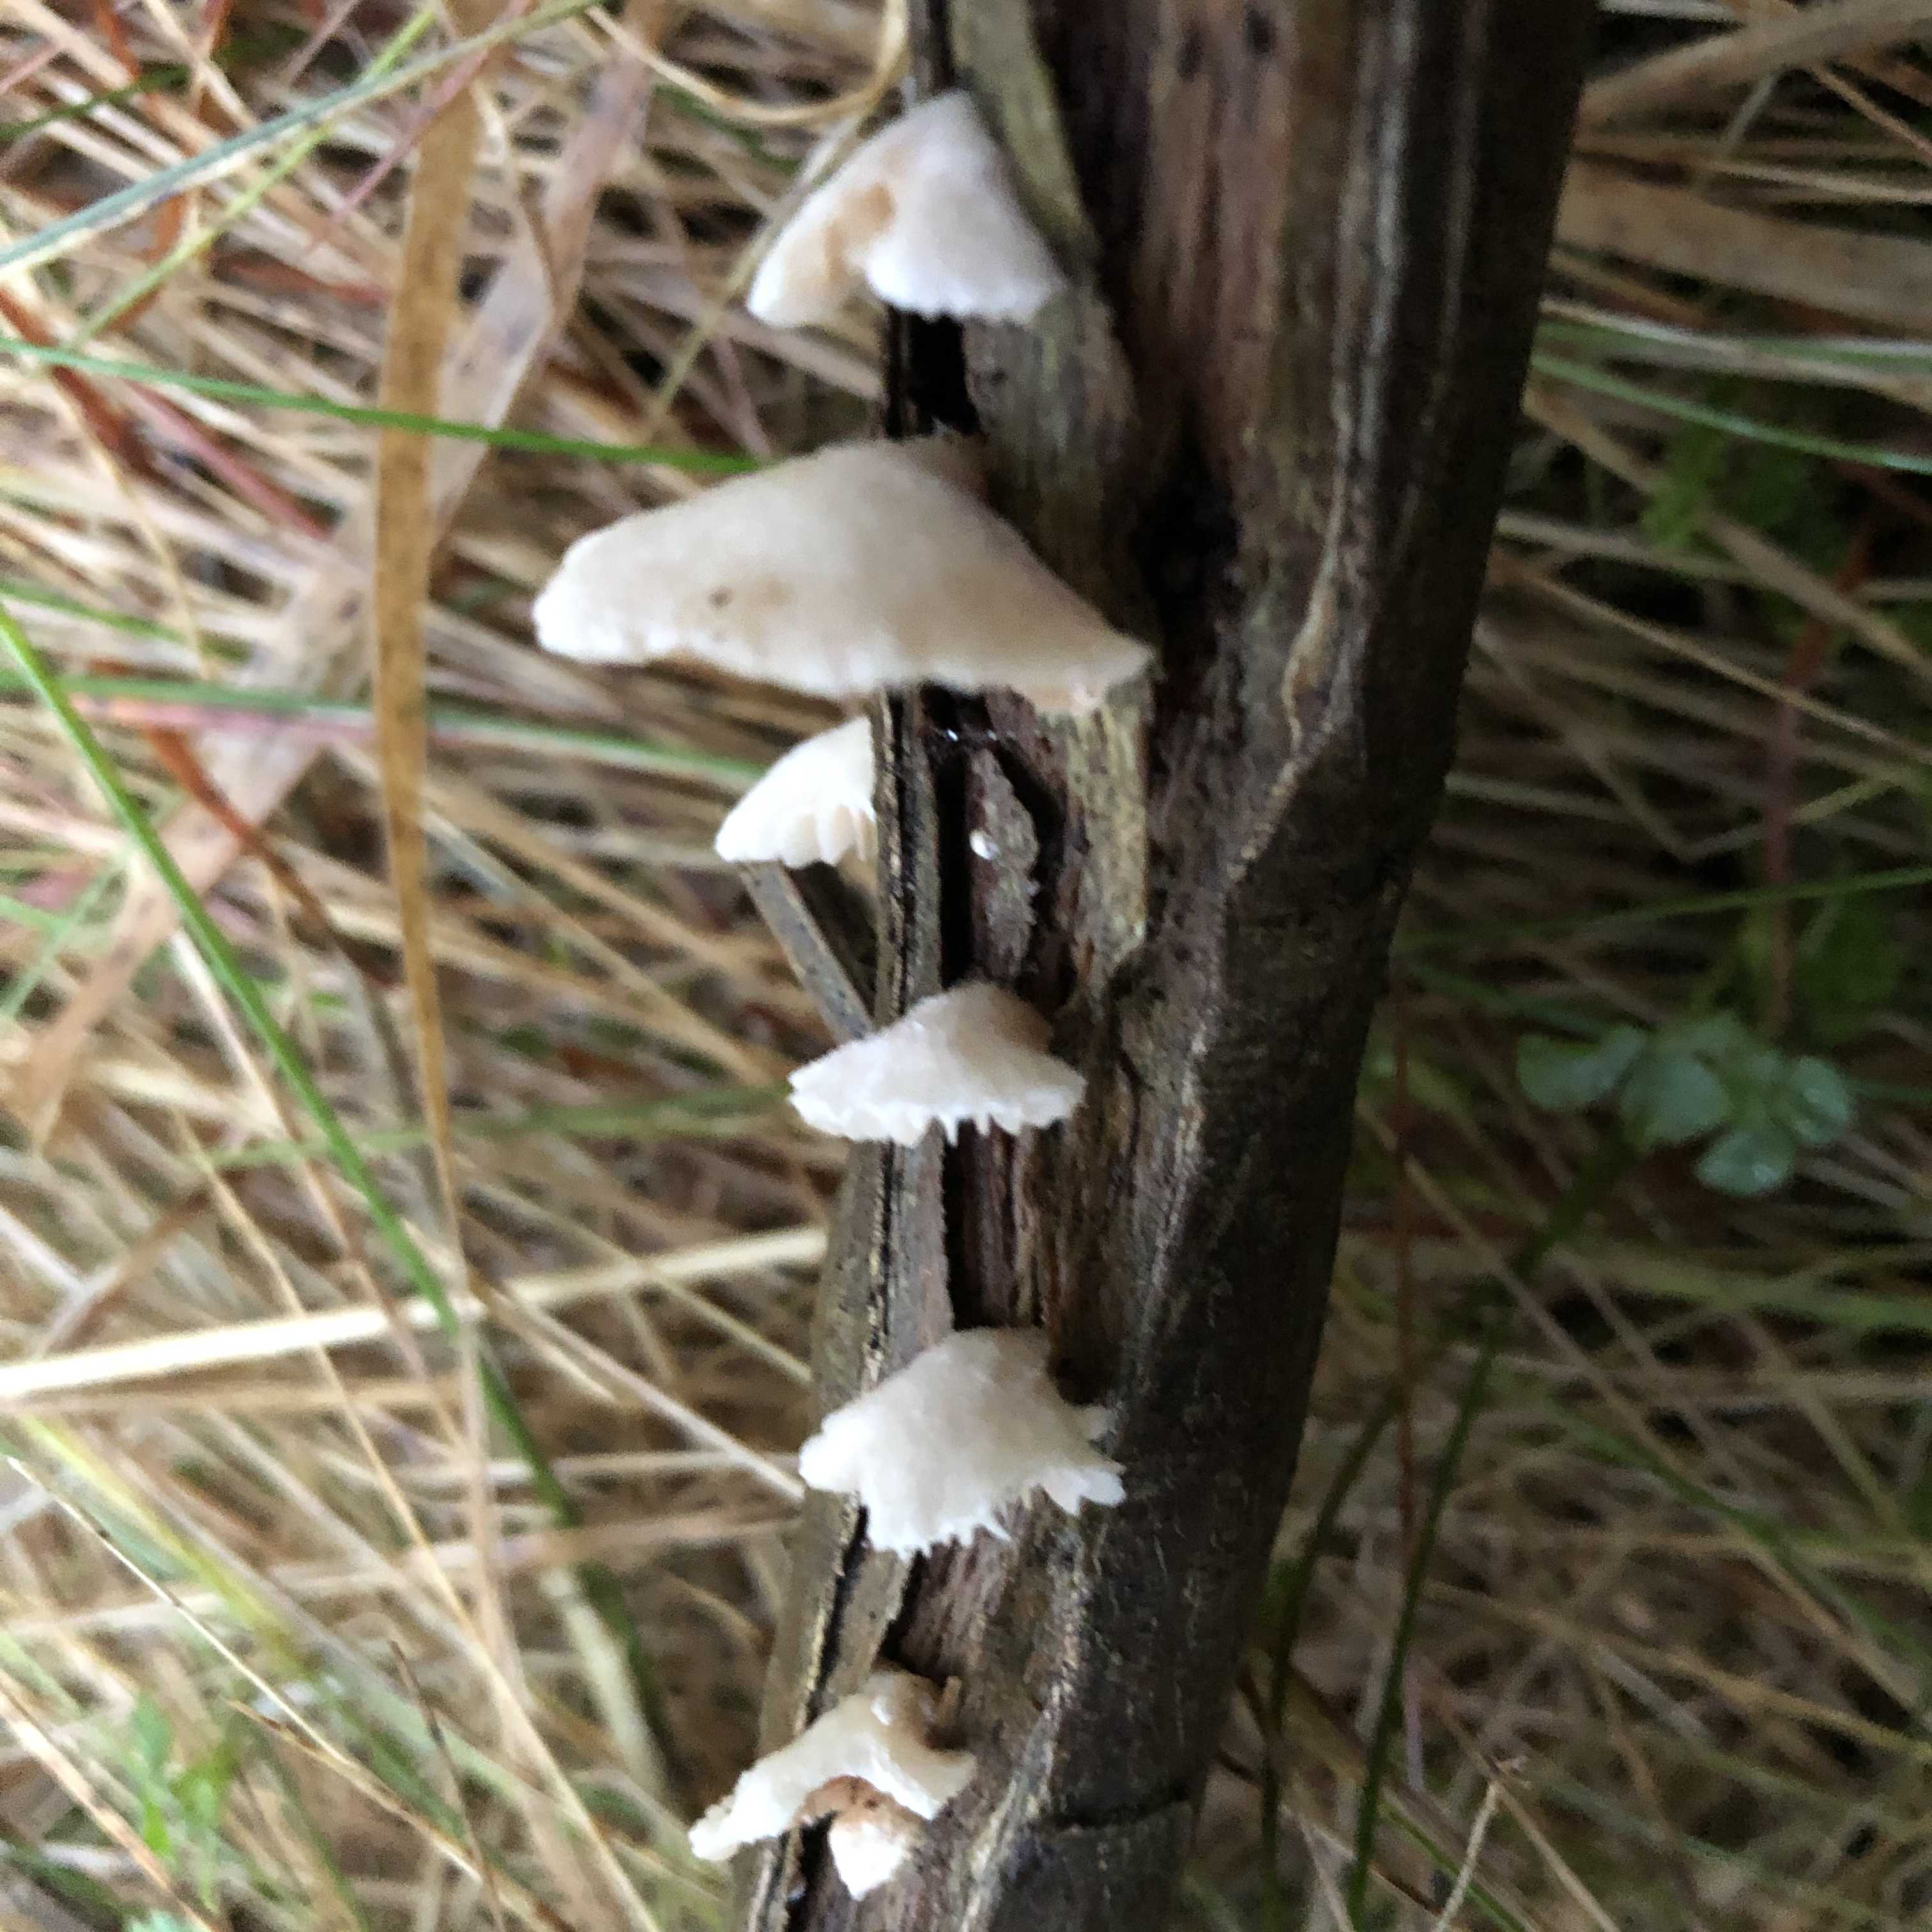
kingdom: Fungi
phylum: Basidiomycota
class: Agaricomycetes
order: Agaricales
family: Crepidotaceae
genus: Crepidotus
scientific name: Crepidotus
